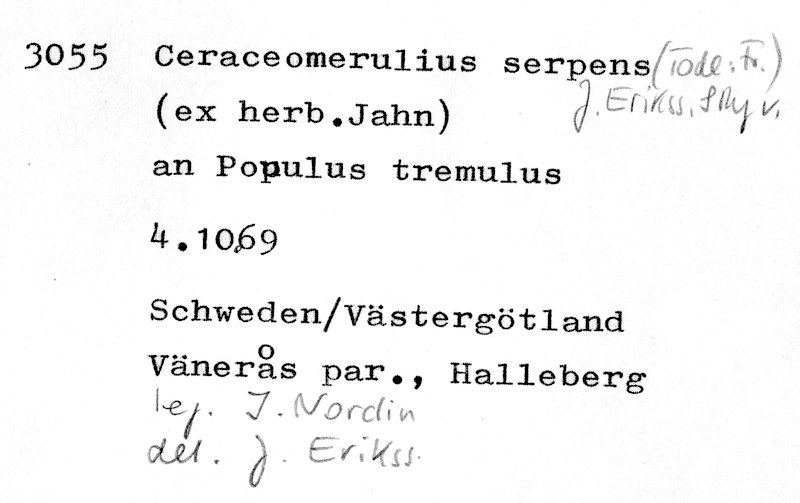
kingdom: Fungi
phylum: Basidiomycota
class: Agaricomycetes
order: Polyporales
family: Irpicaceae
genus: Crystallicutis
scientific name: Crystallicutis serpens
